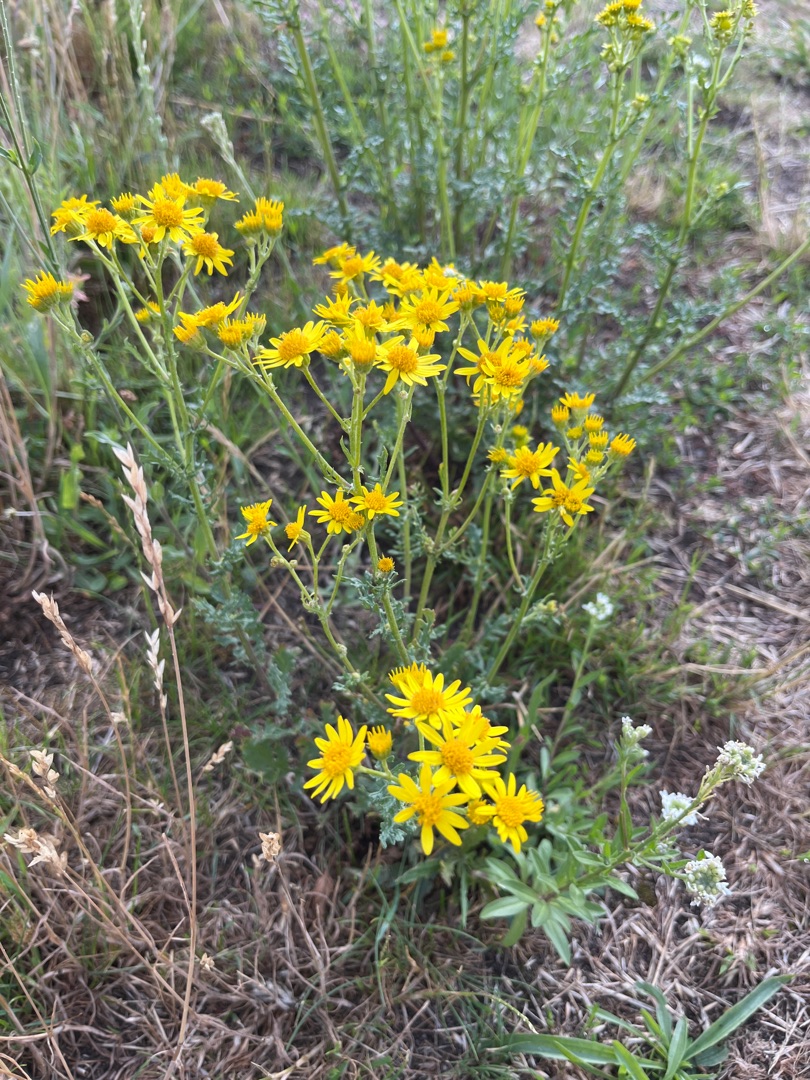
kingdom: Plantae
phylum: Tracheophyta
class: Magnoliopsida
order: Asterales
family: Asteraceae
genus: Jacobaea
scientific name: Jacobaea vulgaris
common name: Eng-brandbæger
